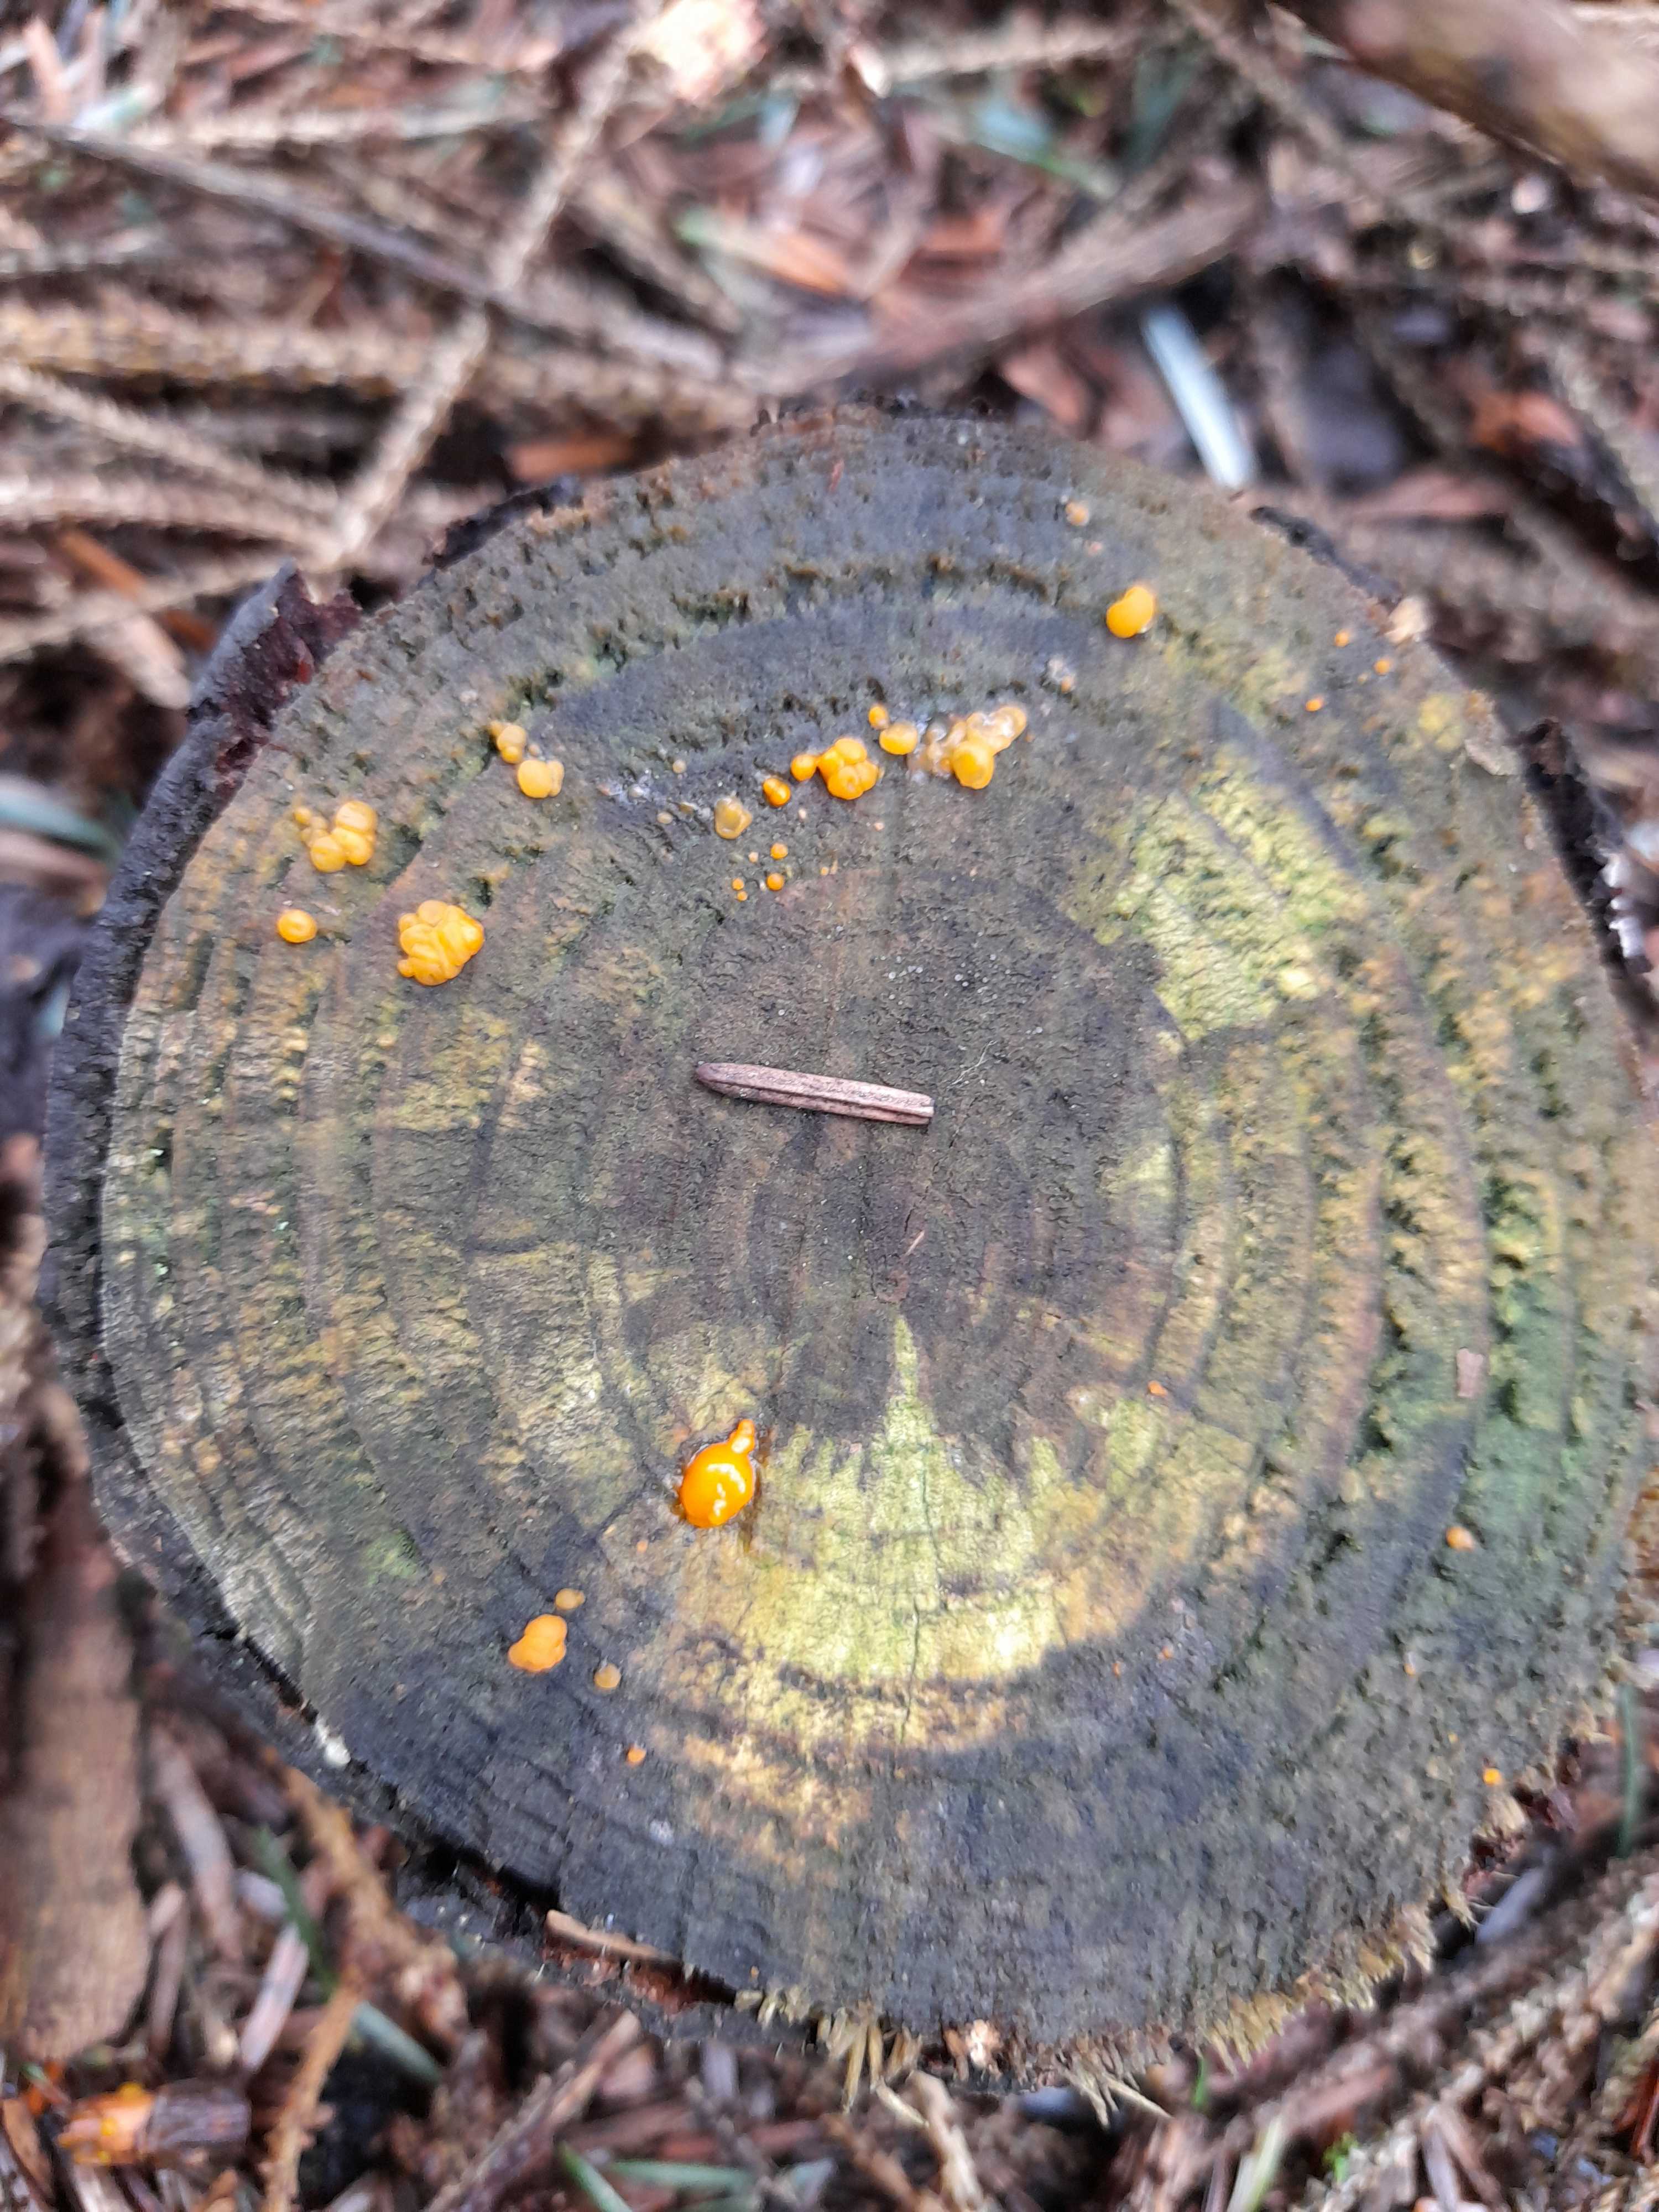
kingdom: Fungi
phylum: Basidiomycota
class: Dacrymycetes
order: Dacrymycetales
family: Dacrymycetaceae
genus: Dacrymyces
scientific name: Dacrymyces stillatus
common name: almindelig tåresvamp
